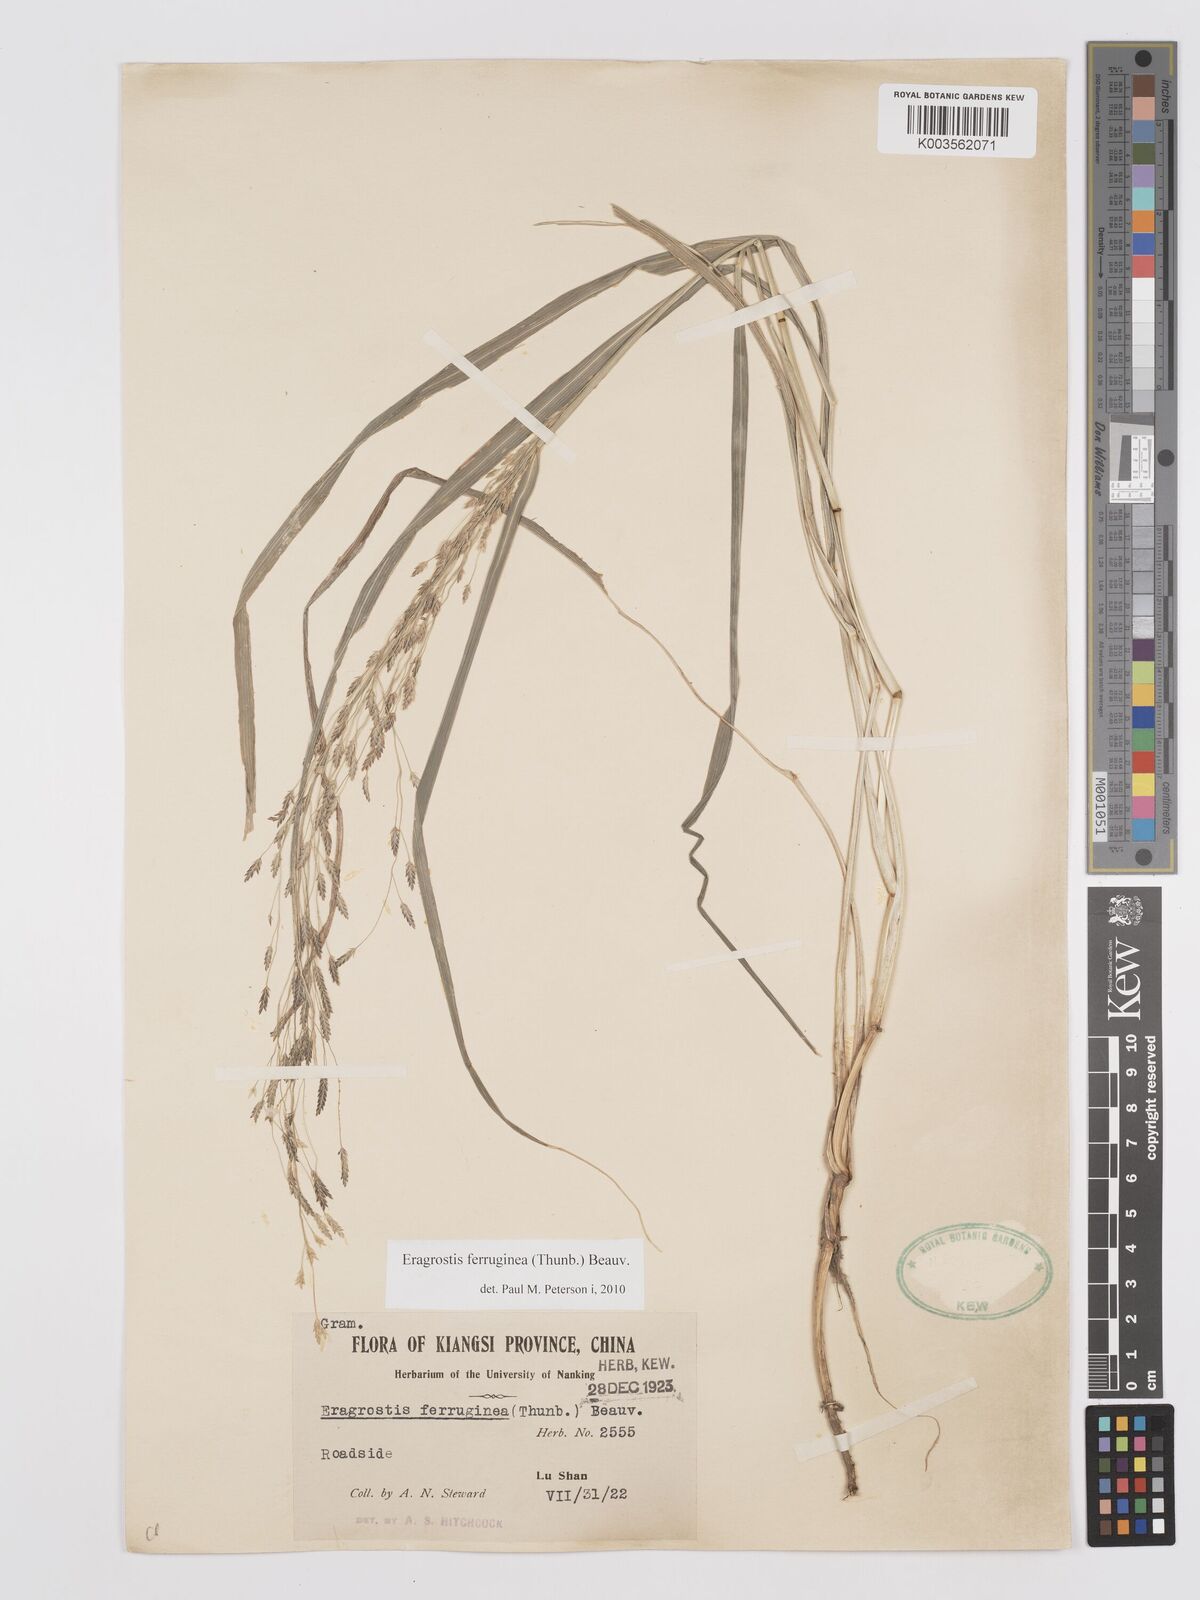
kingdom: Plantae
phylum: Tracheophyta
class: Liliopsida
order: Poales
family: Poaceae
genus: Eragrostis
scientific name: Eragrostis ferruginea
